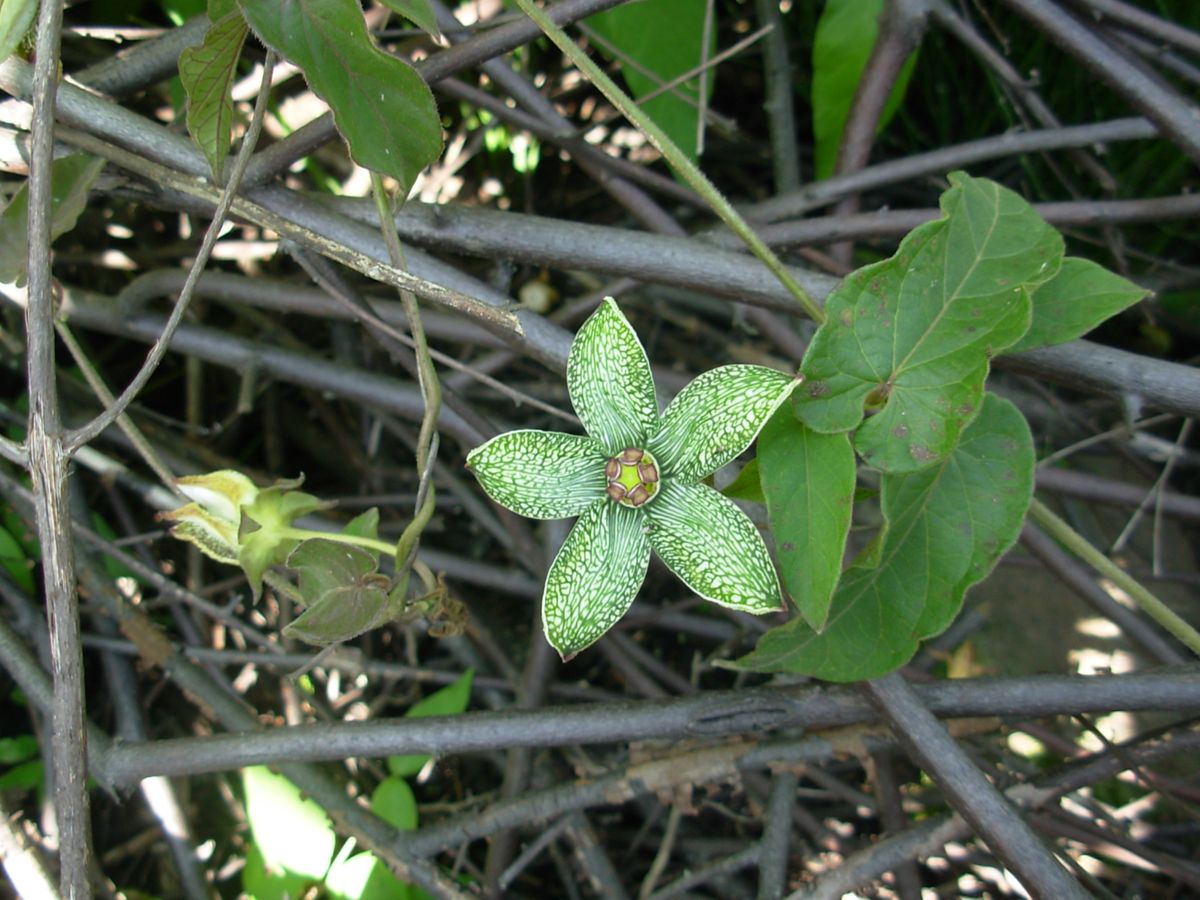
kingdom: Plantae
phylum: Tracheophyta
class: Magnoliopsida
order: Gentianales
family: Apocynaceae
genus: Gonolobus
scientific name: Gonolobus incerianus
